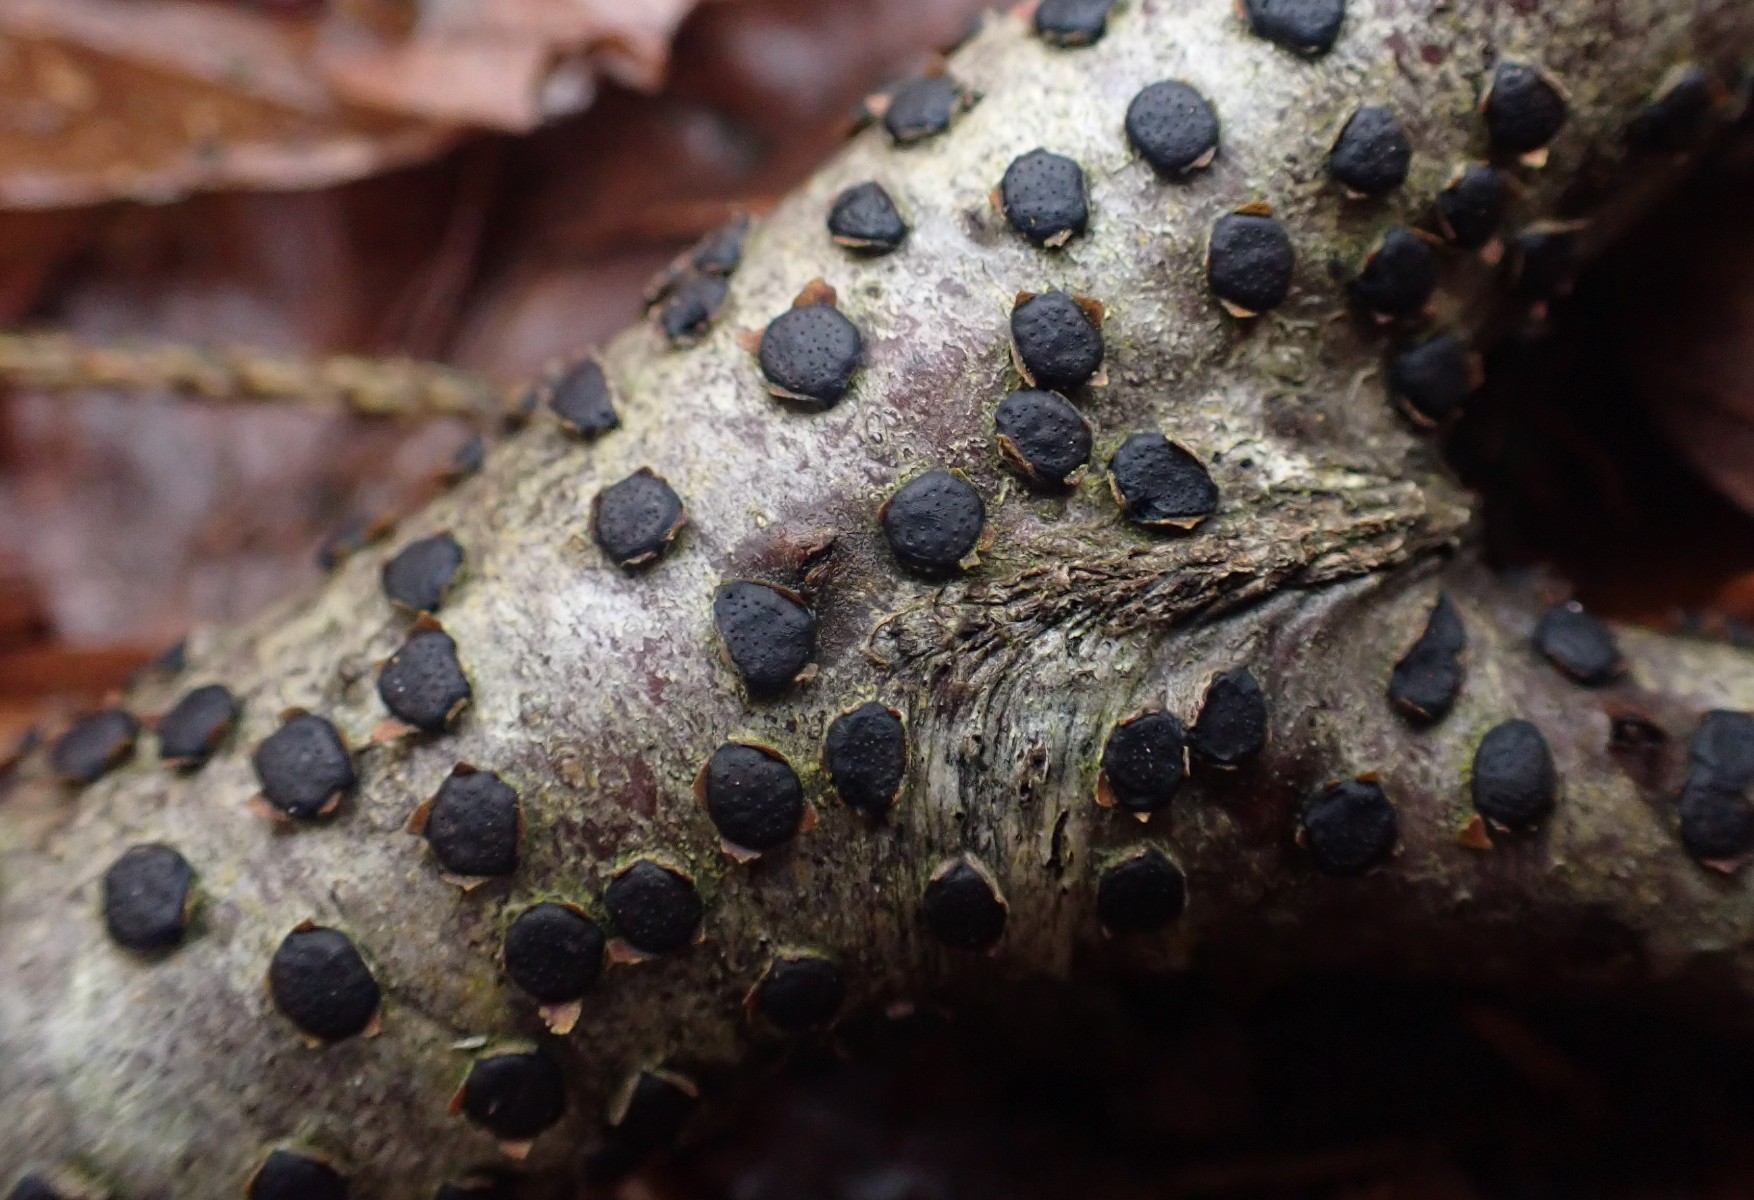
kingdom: Fungi
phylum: Ascomycota
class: Sordariomycetes
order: Xylariales
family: Diatrypaceae
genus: Diatrype
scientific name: Diatrype disciformis
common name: kant-kulskorpe
